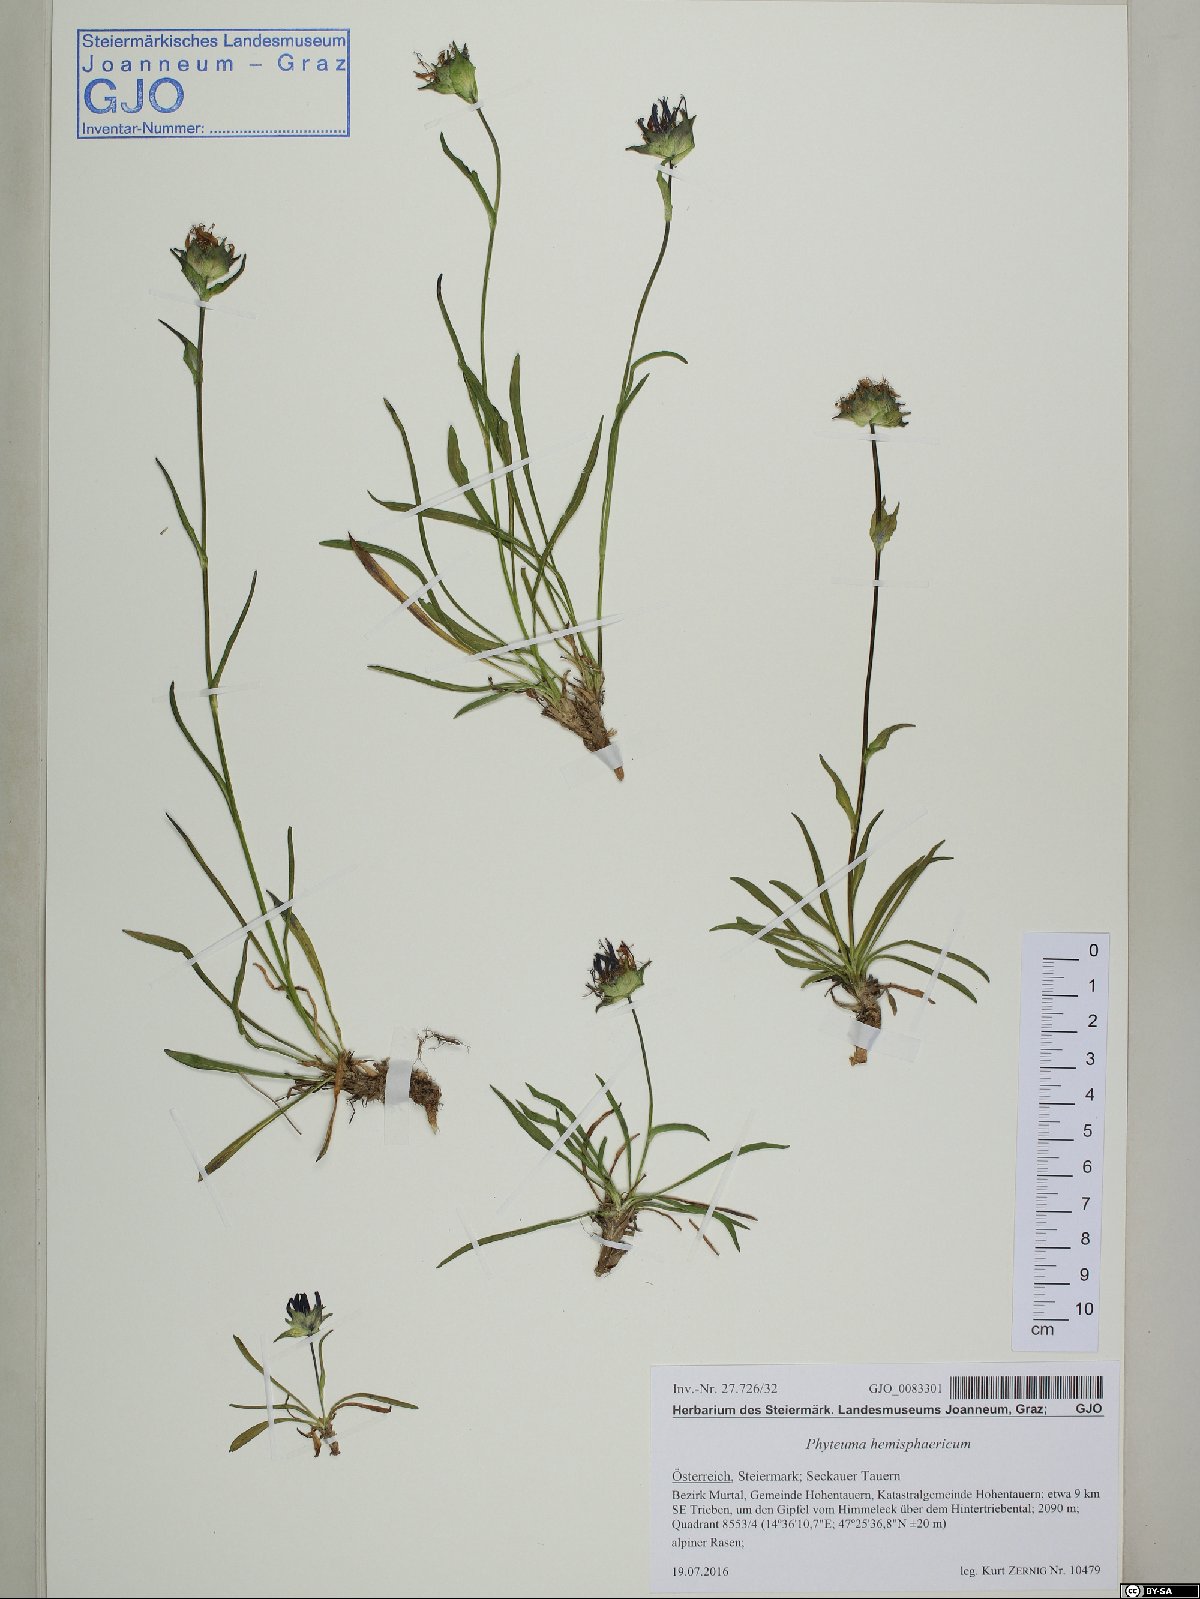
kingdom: Plantae
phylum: Tracheophyta
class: Magnoliopsida
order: Asterales
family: Campanulaceae
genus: Phyteuma
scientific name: Phyteuma confusum
